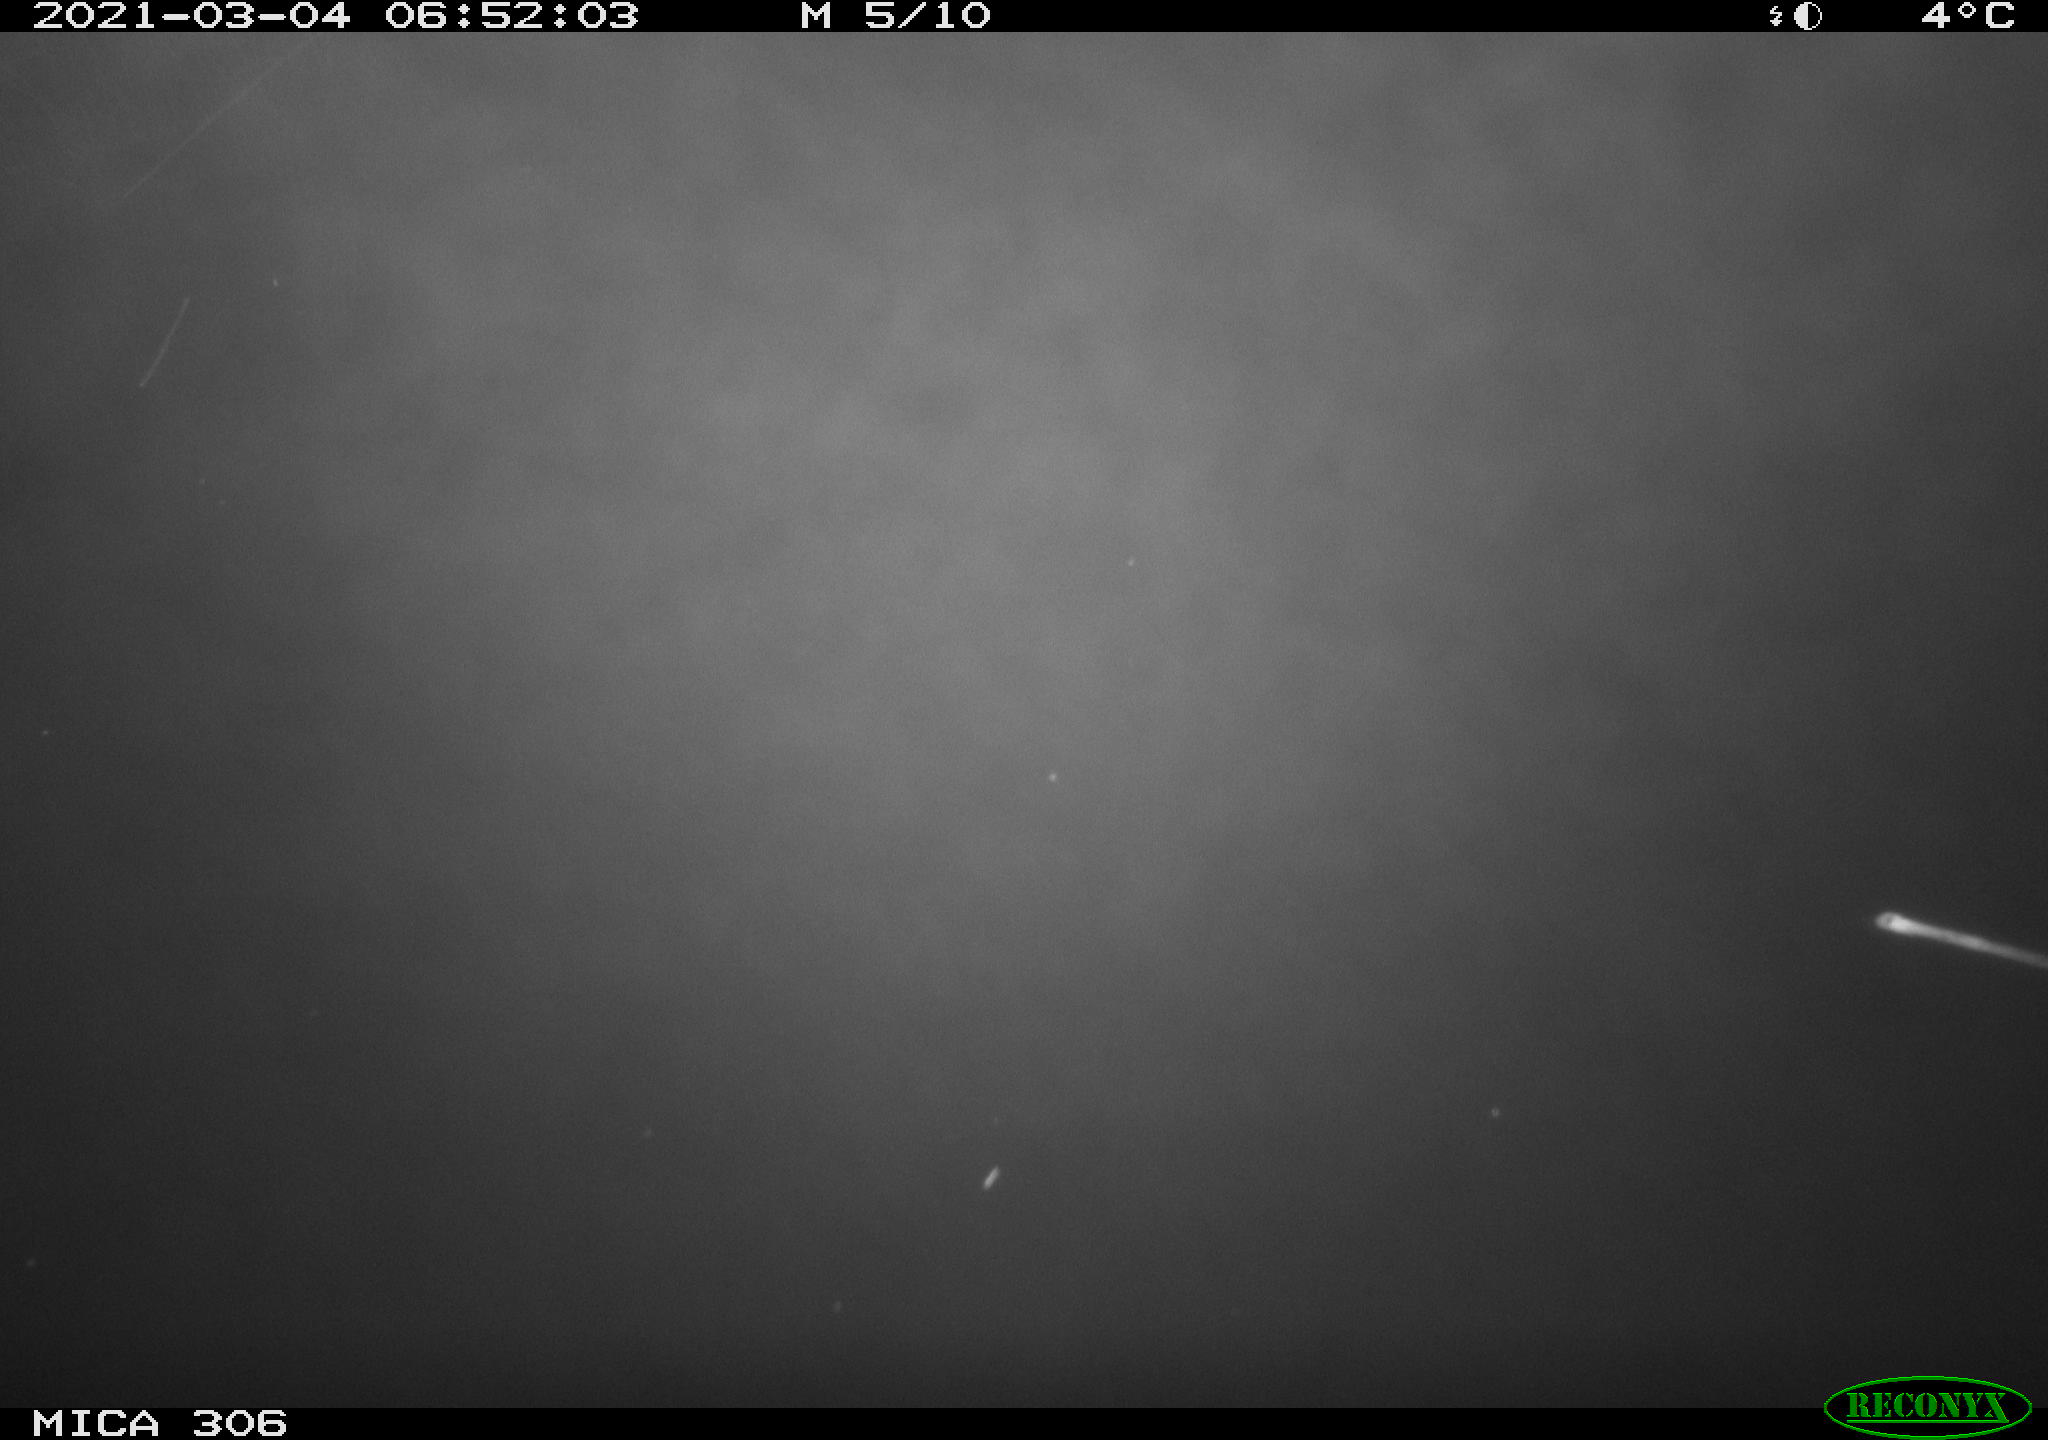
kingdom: Animalia
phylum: Chordata
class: Aves
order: Gruiformes
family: Rallidae
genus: Gallinula
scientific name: Gallinula chloropus
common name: Common moorhen
